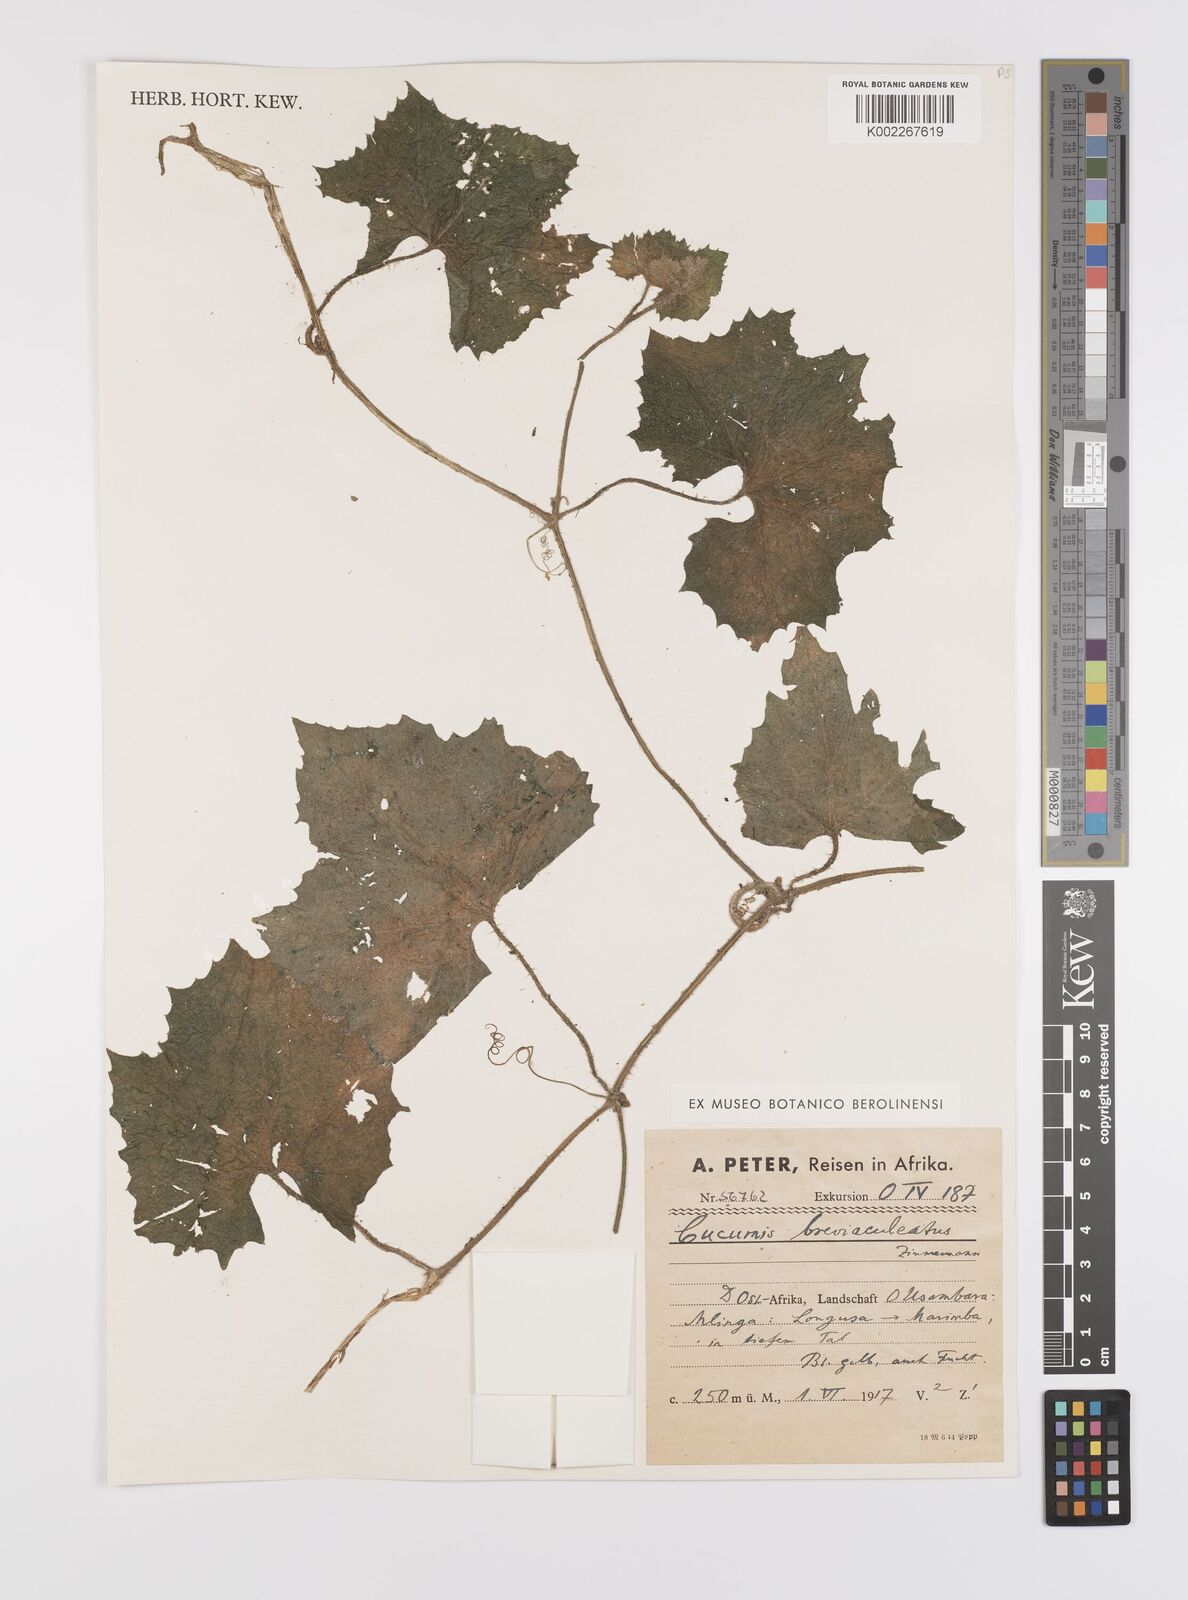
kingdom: Plantae
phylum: Tracheophyta
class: Magnoliopsida
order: Cucurbitales
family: Cucurbitaceae
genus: Cucumis
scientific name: Cucumis sacleuxii
